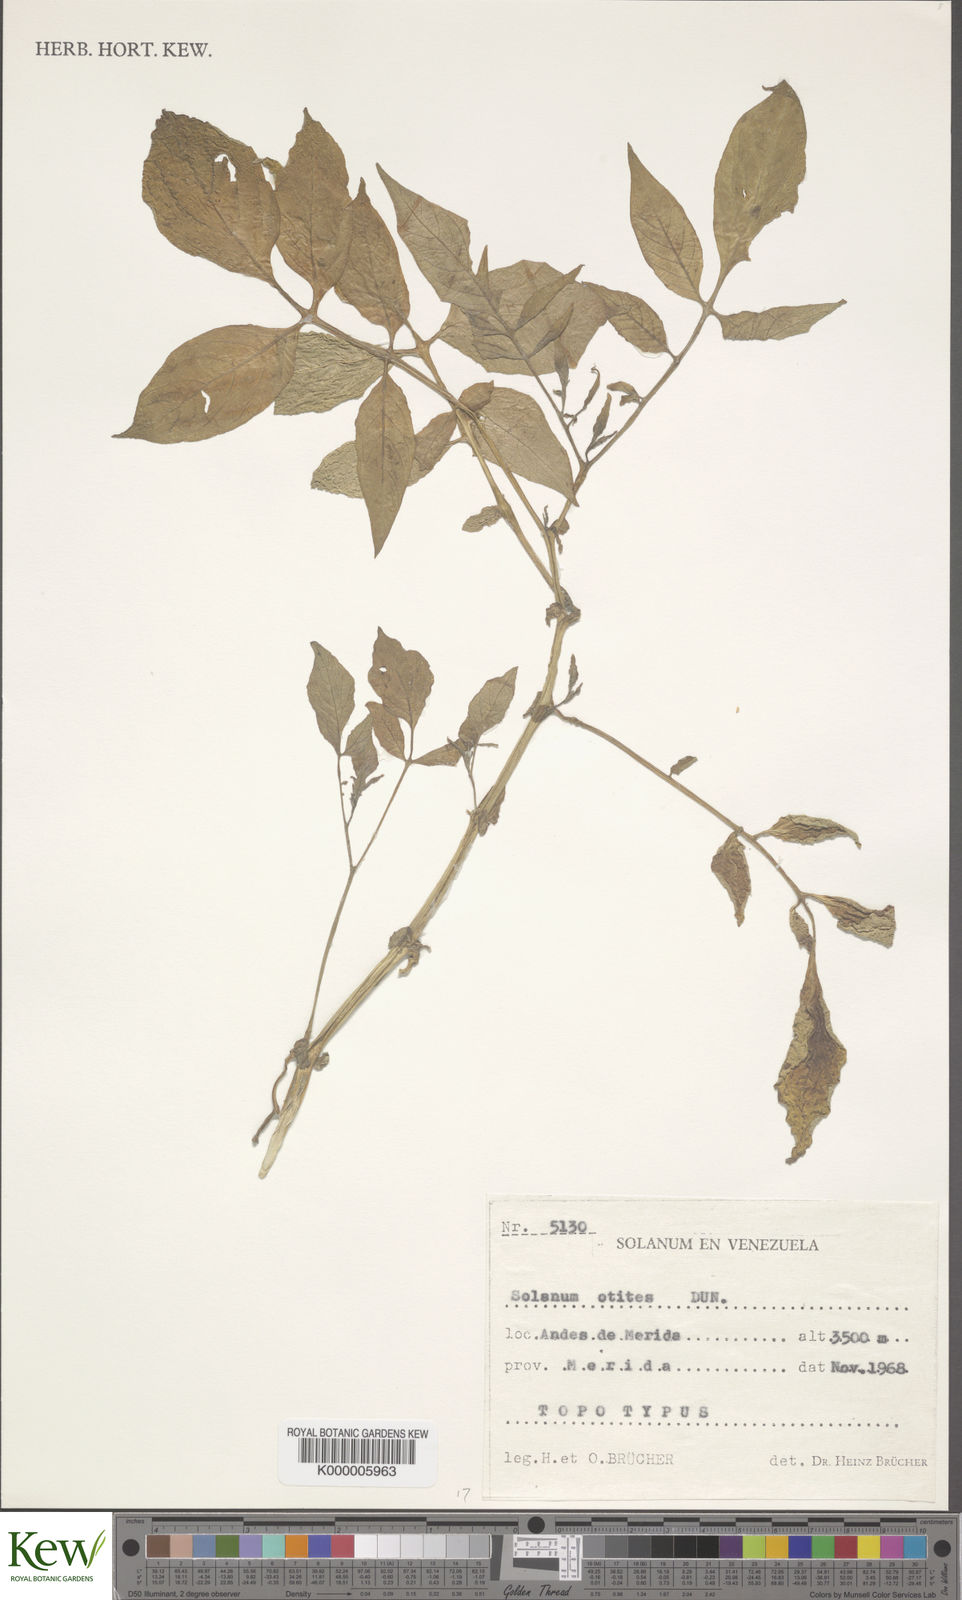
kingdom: Plantae
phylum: Tracheophyta
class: Magnoliopsida
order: Solanales
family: Solanaceae
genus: Solanum
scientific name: Solanum colombianum
